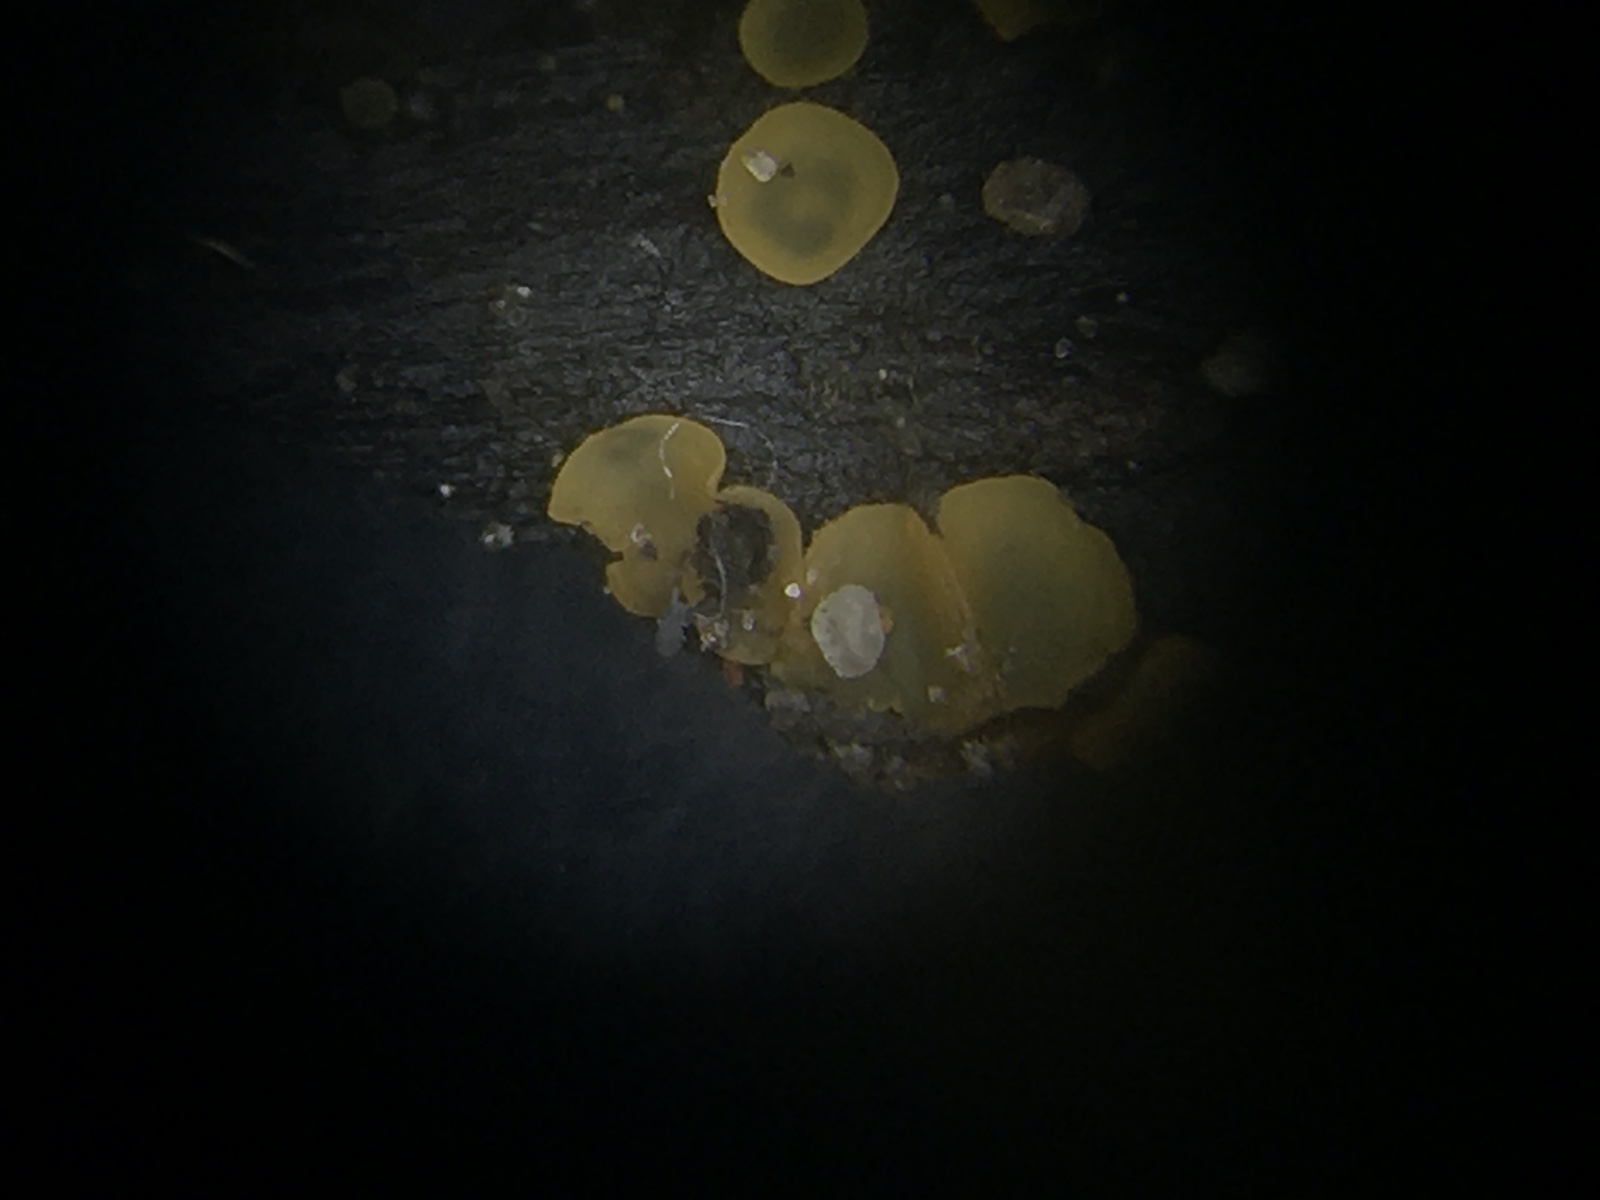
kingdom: Fungi
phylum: Ascomycota
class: Orbiliomycetes
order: Orbiliales
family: Orbiliaceae
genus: Orbilia
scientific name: Orbilia xanthostigma
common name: krumsporet voksskive
